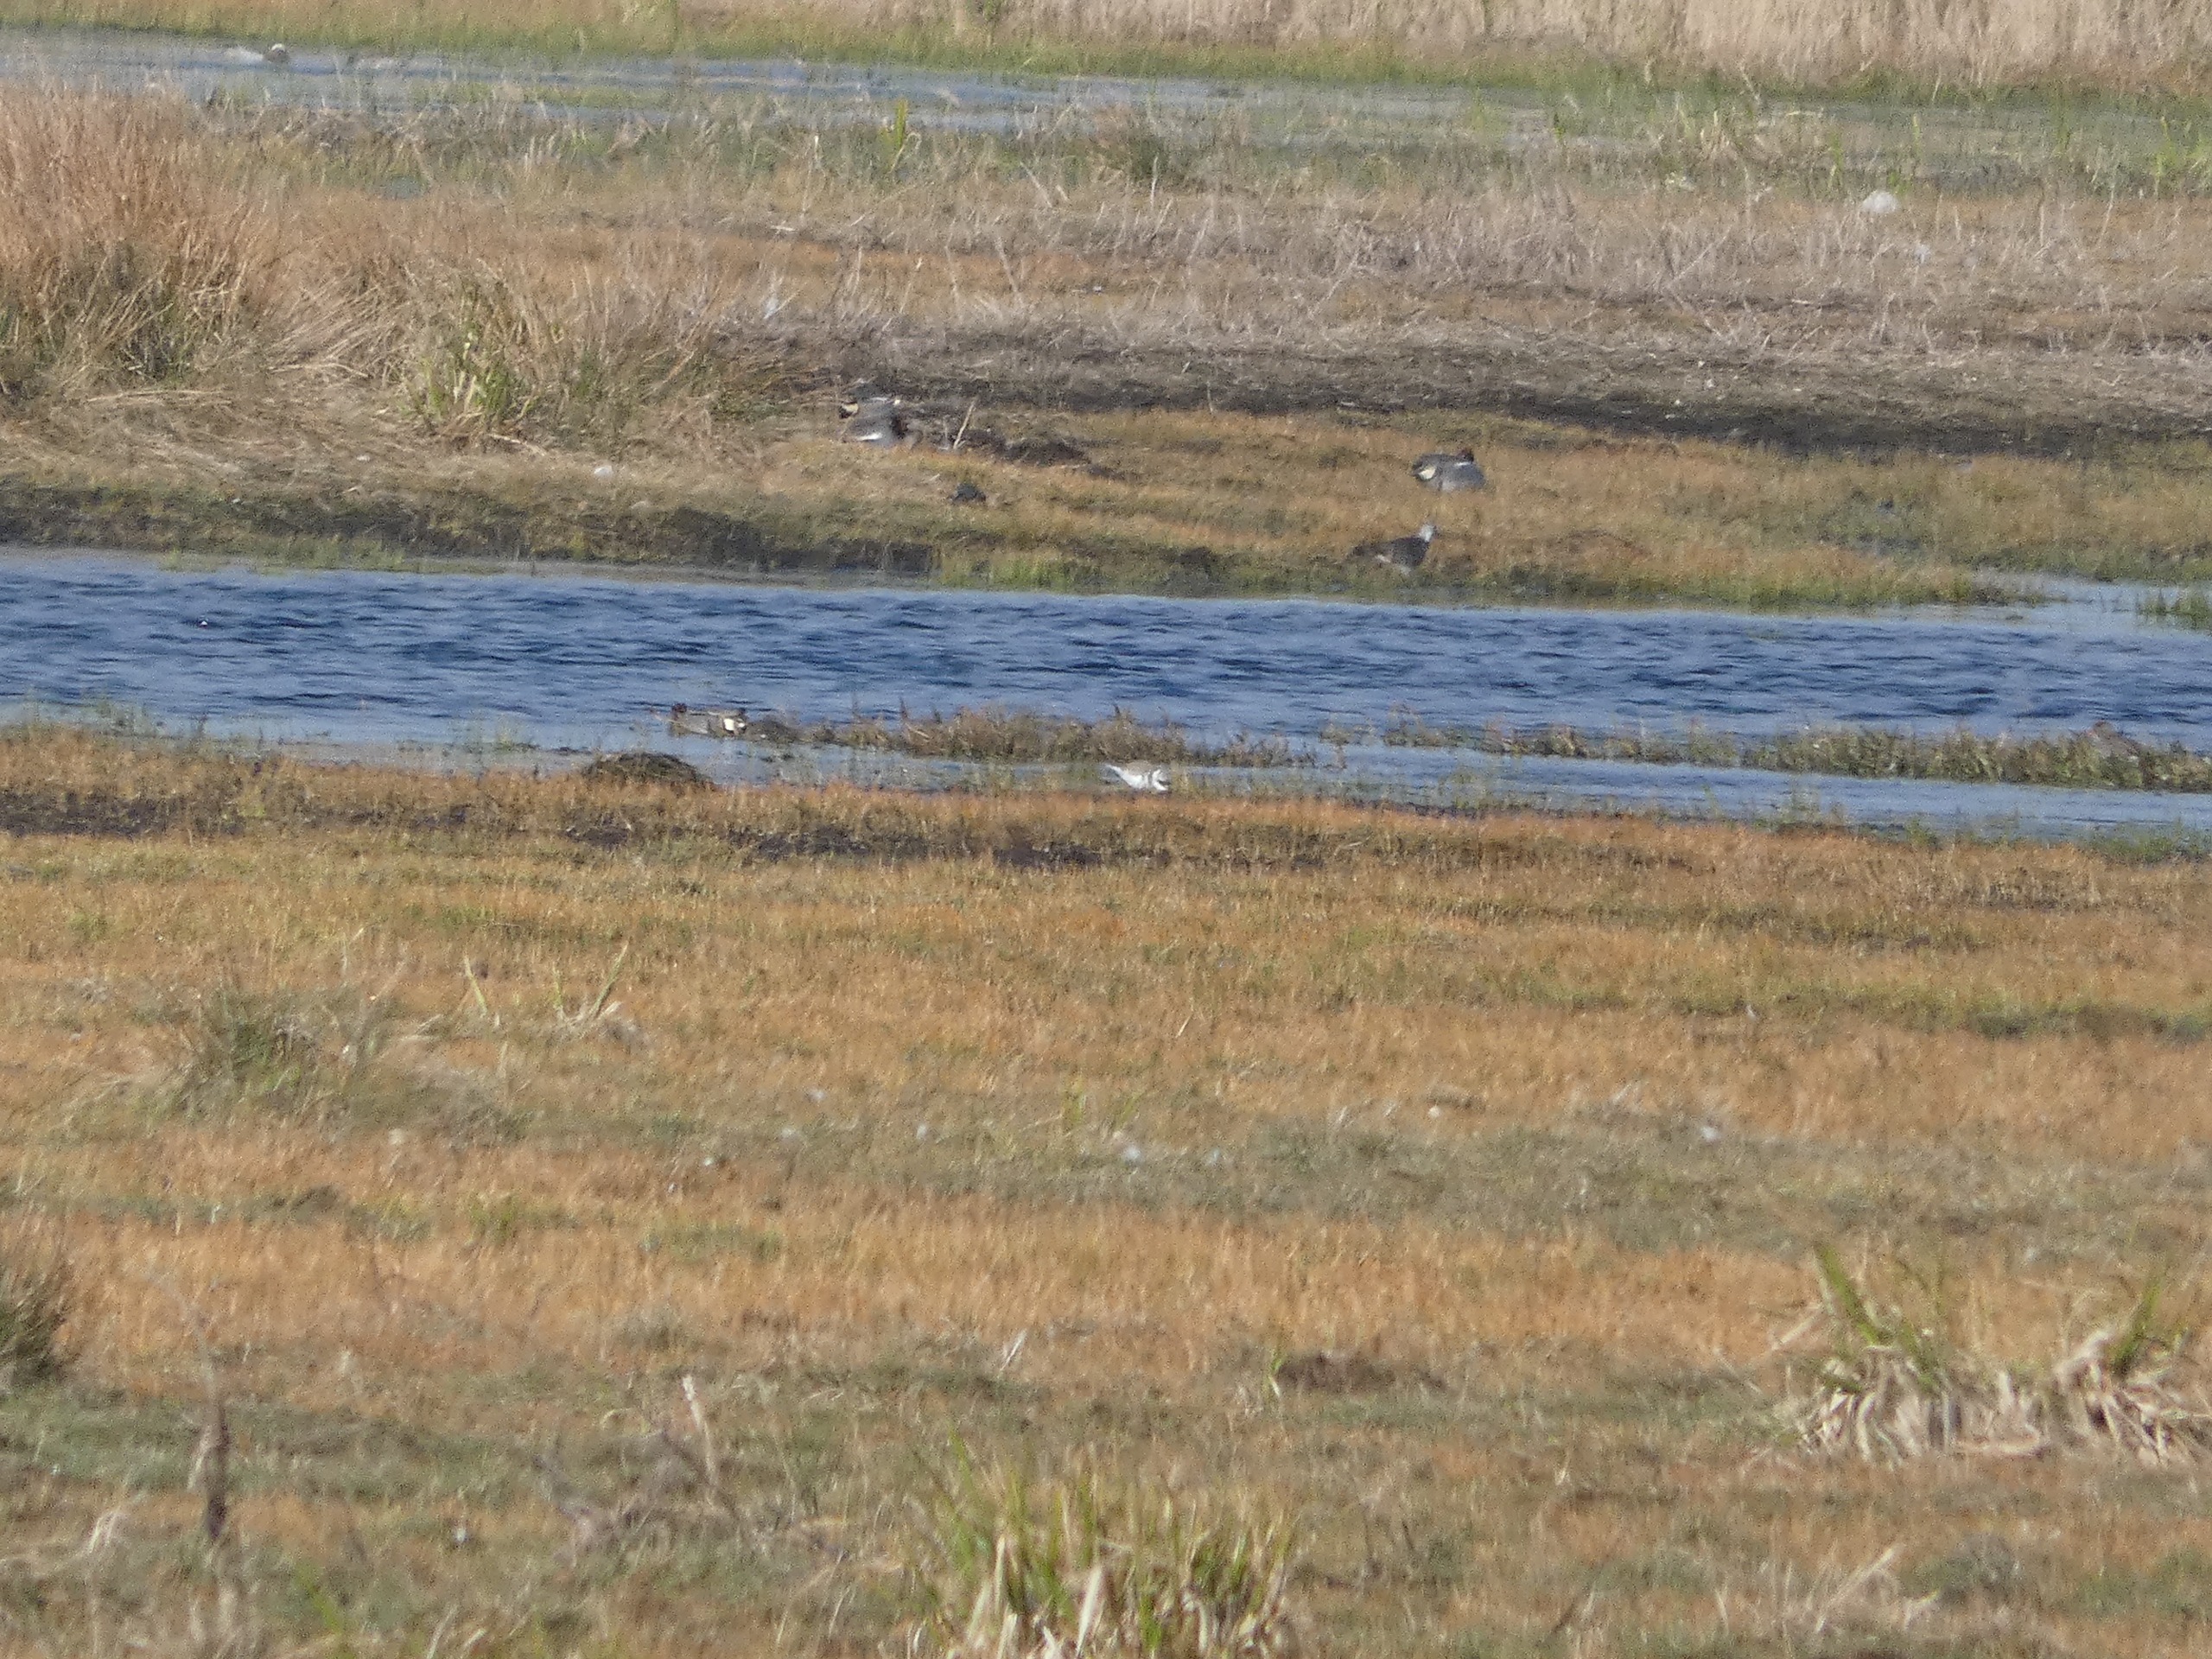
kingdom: Animalia
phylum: Chordata
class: Aves
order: Anseriformes
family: Anatidae
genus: Anas
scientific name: Anas crecca
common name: Krikand
